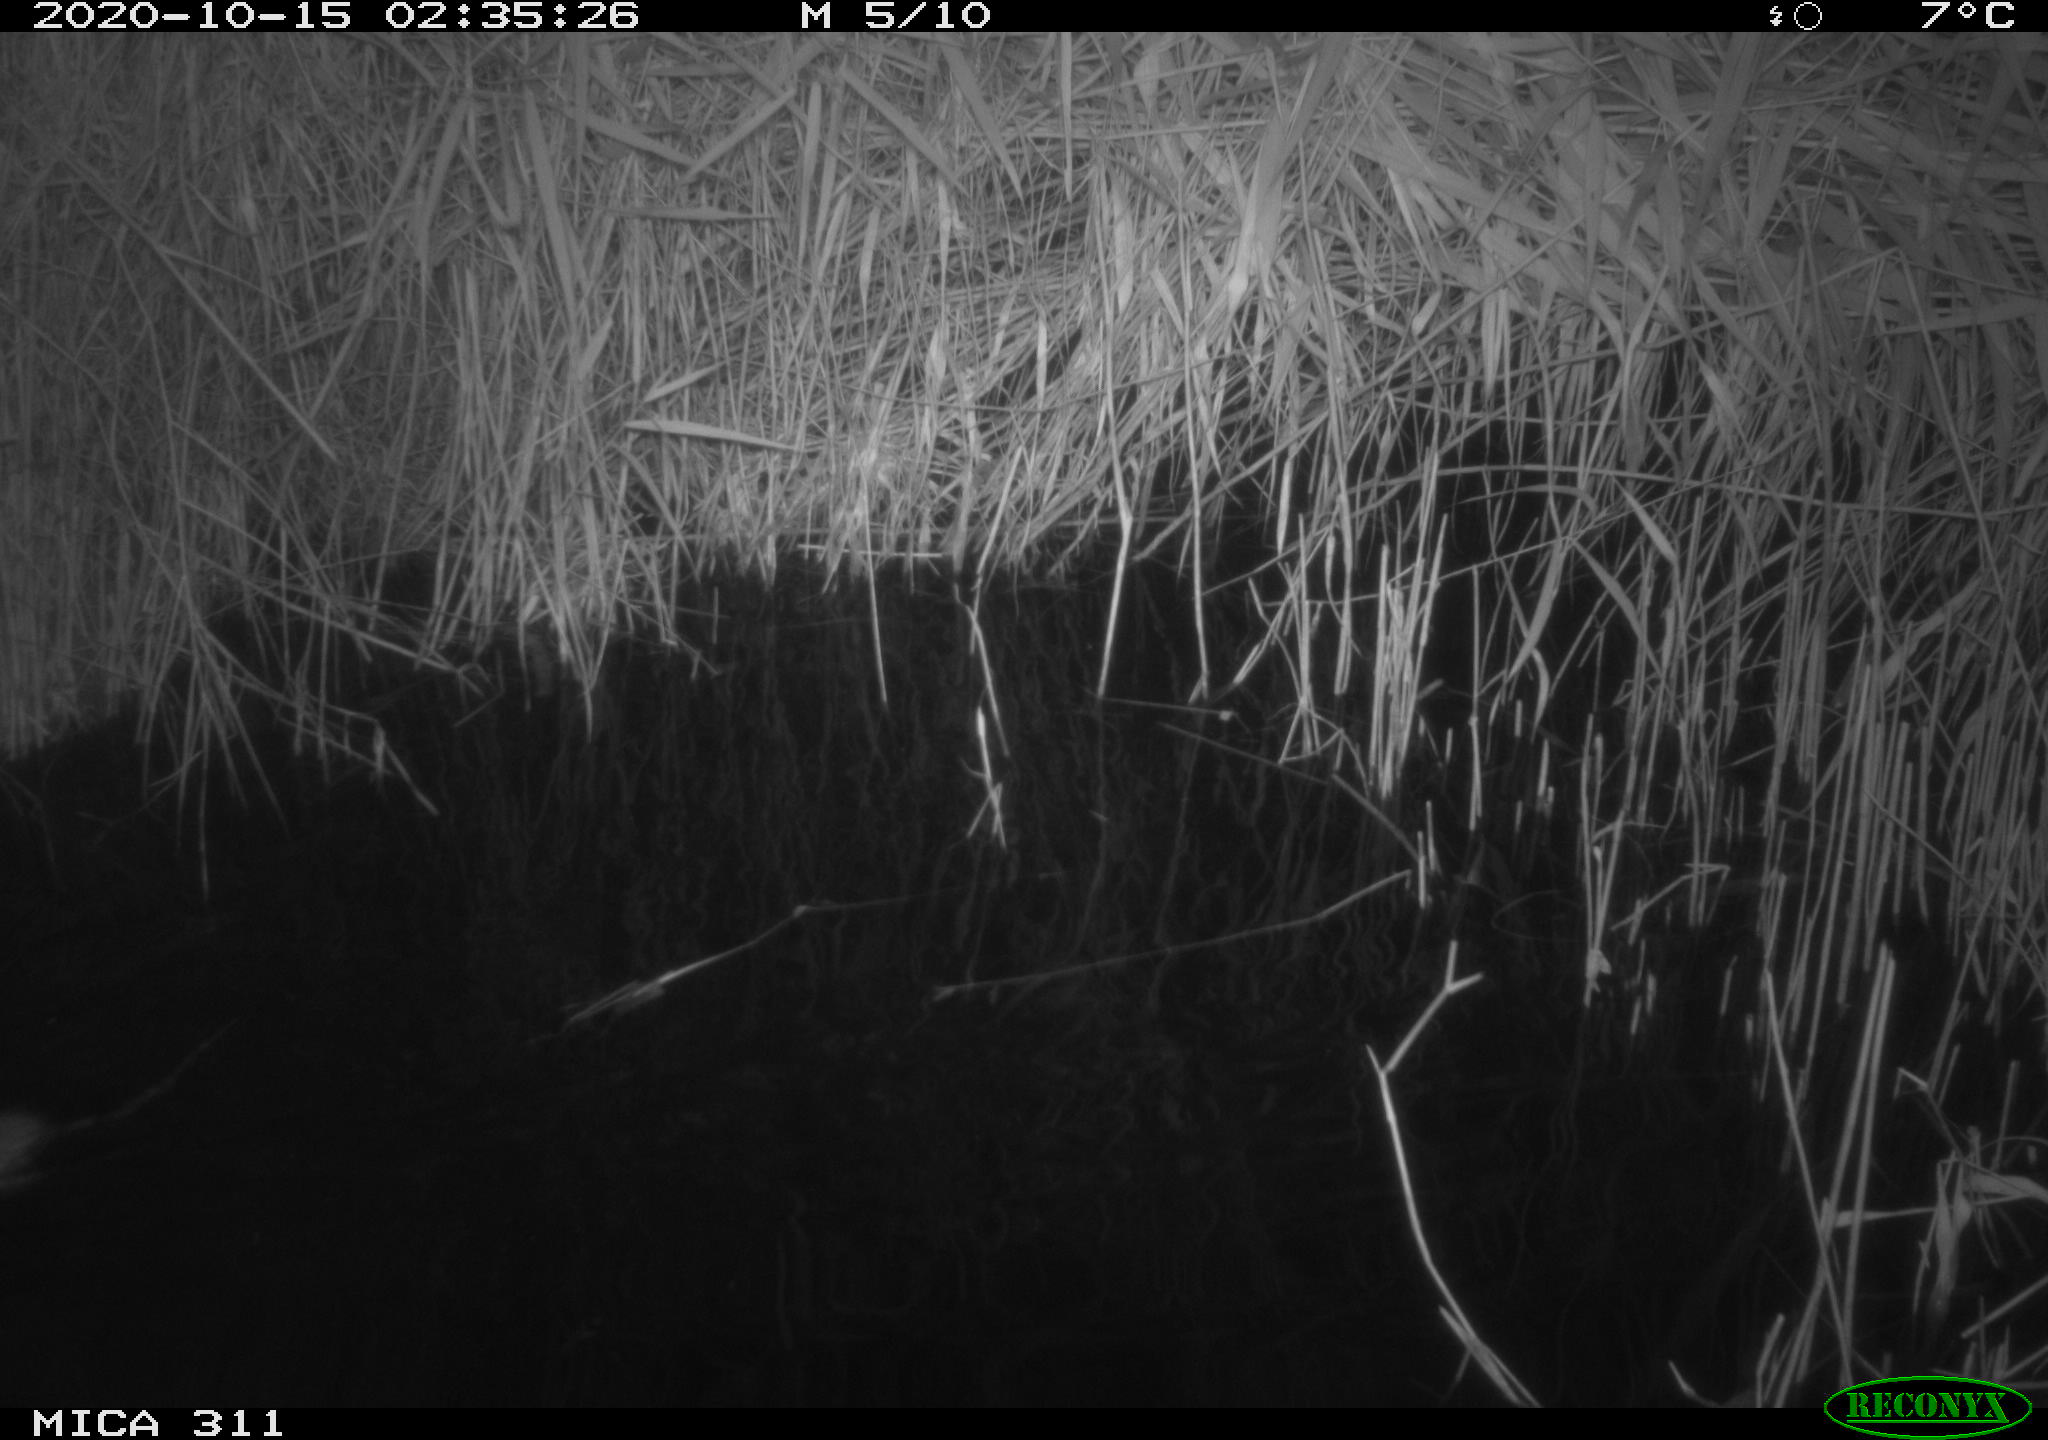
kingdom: Animalia
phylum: Chordata
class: Mammalia
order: Rodentia
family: Cricetidae
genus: Ondatra
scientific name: Ondatra zibethicus
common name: Muskrat
